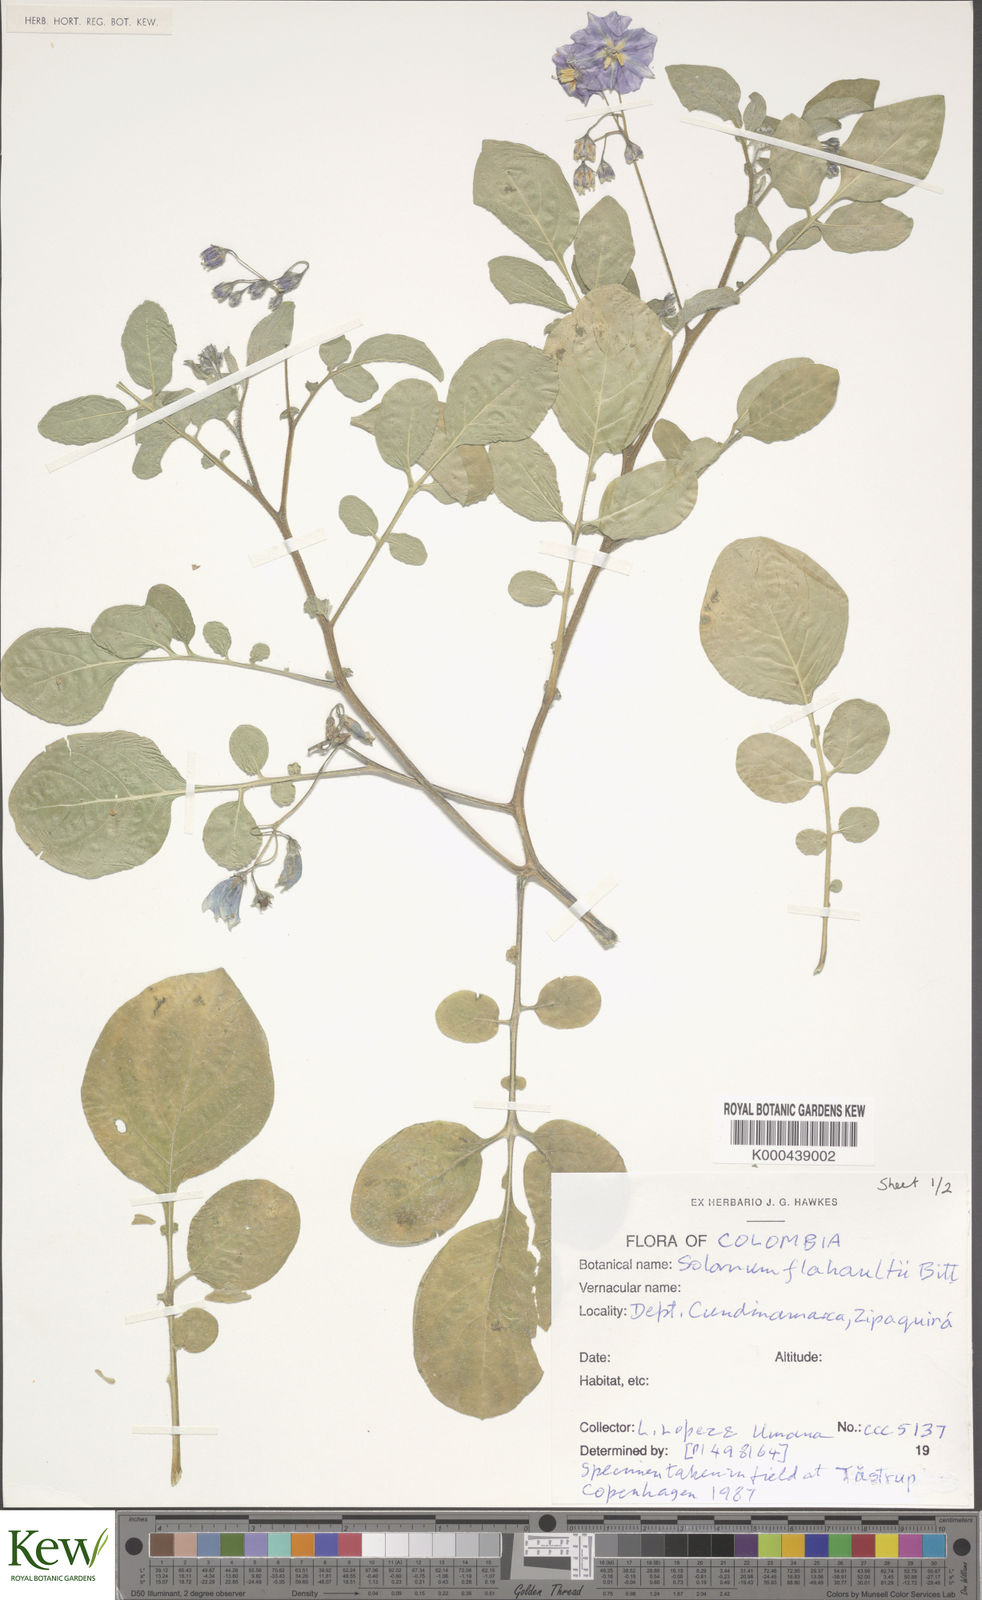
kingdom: Plantae
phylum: Tracheophyta
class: Magnoliopsida
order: Solanales
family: Solanaceae
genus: Solanum
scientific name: Solanum flahaultii
